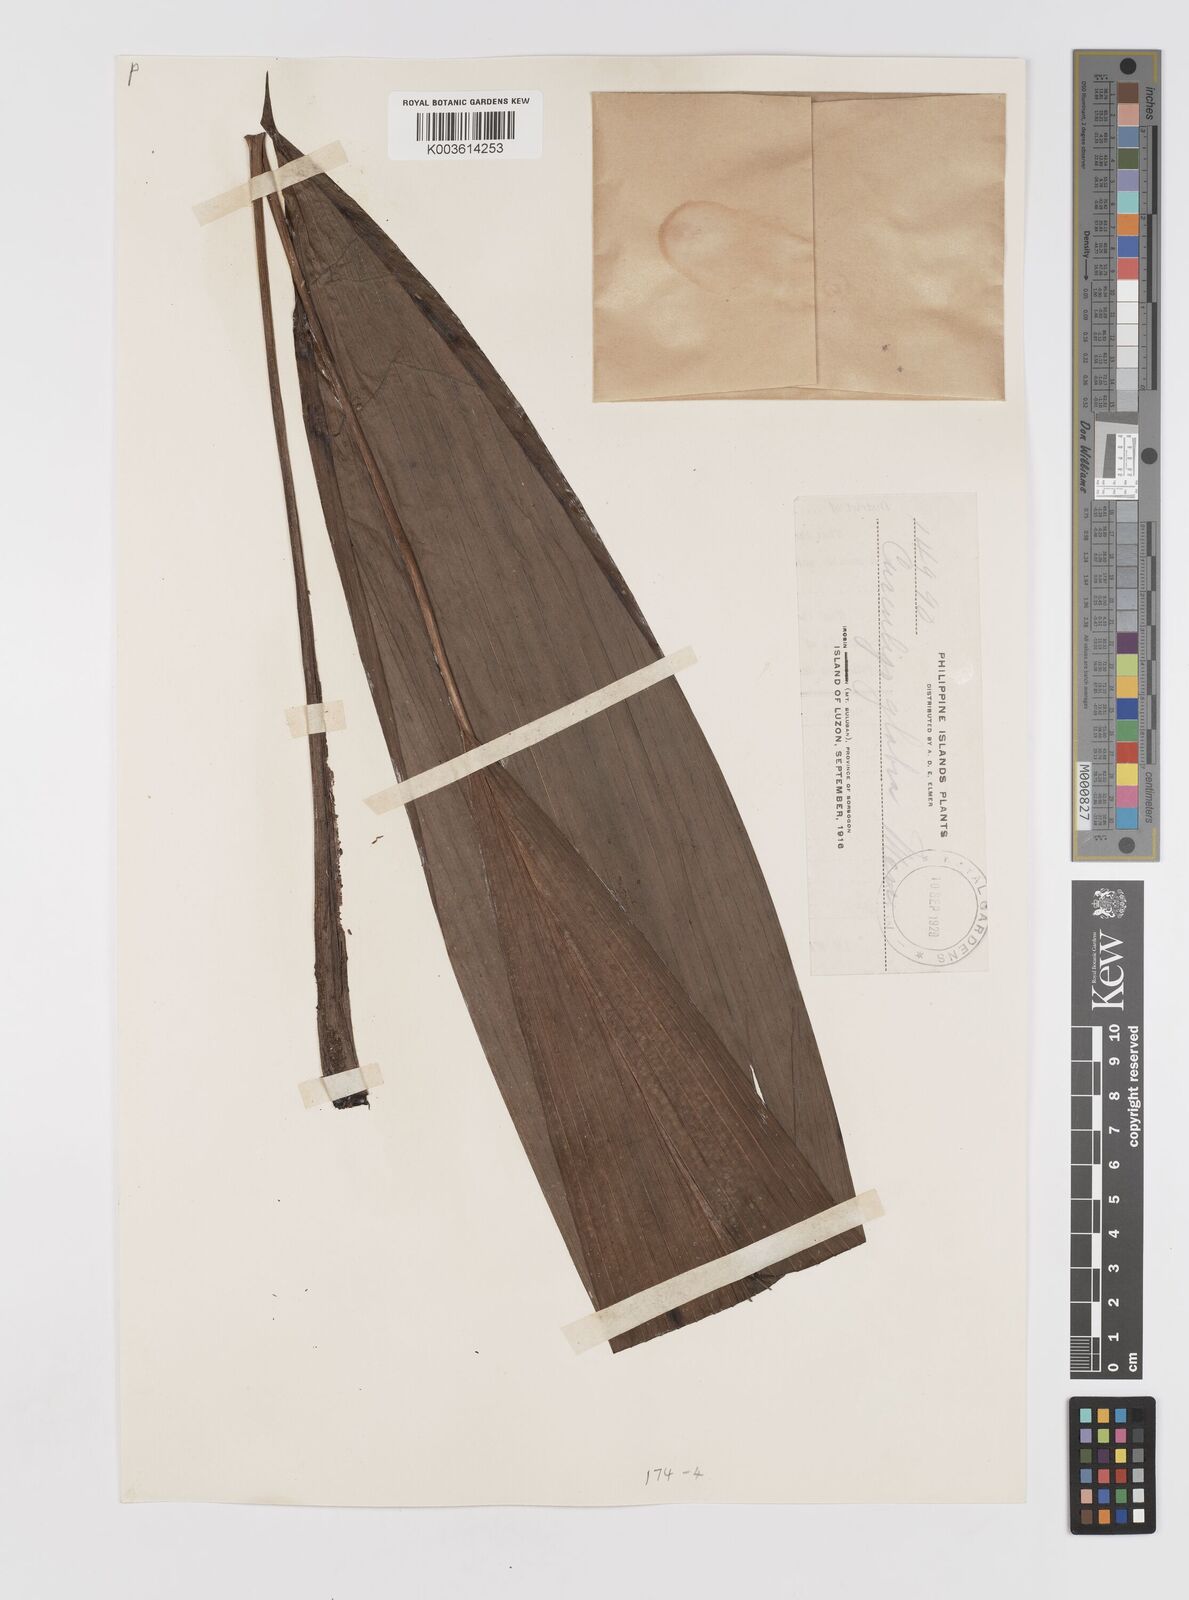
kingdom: Plantae
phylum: Tracheophyta
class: Liliopsida
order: Asparagales
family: Hypoxidaceae
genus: Curculigo
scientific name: Curculigo capitulata
